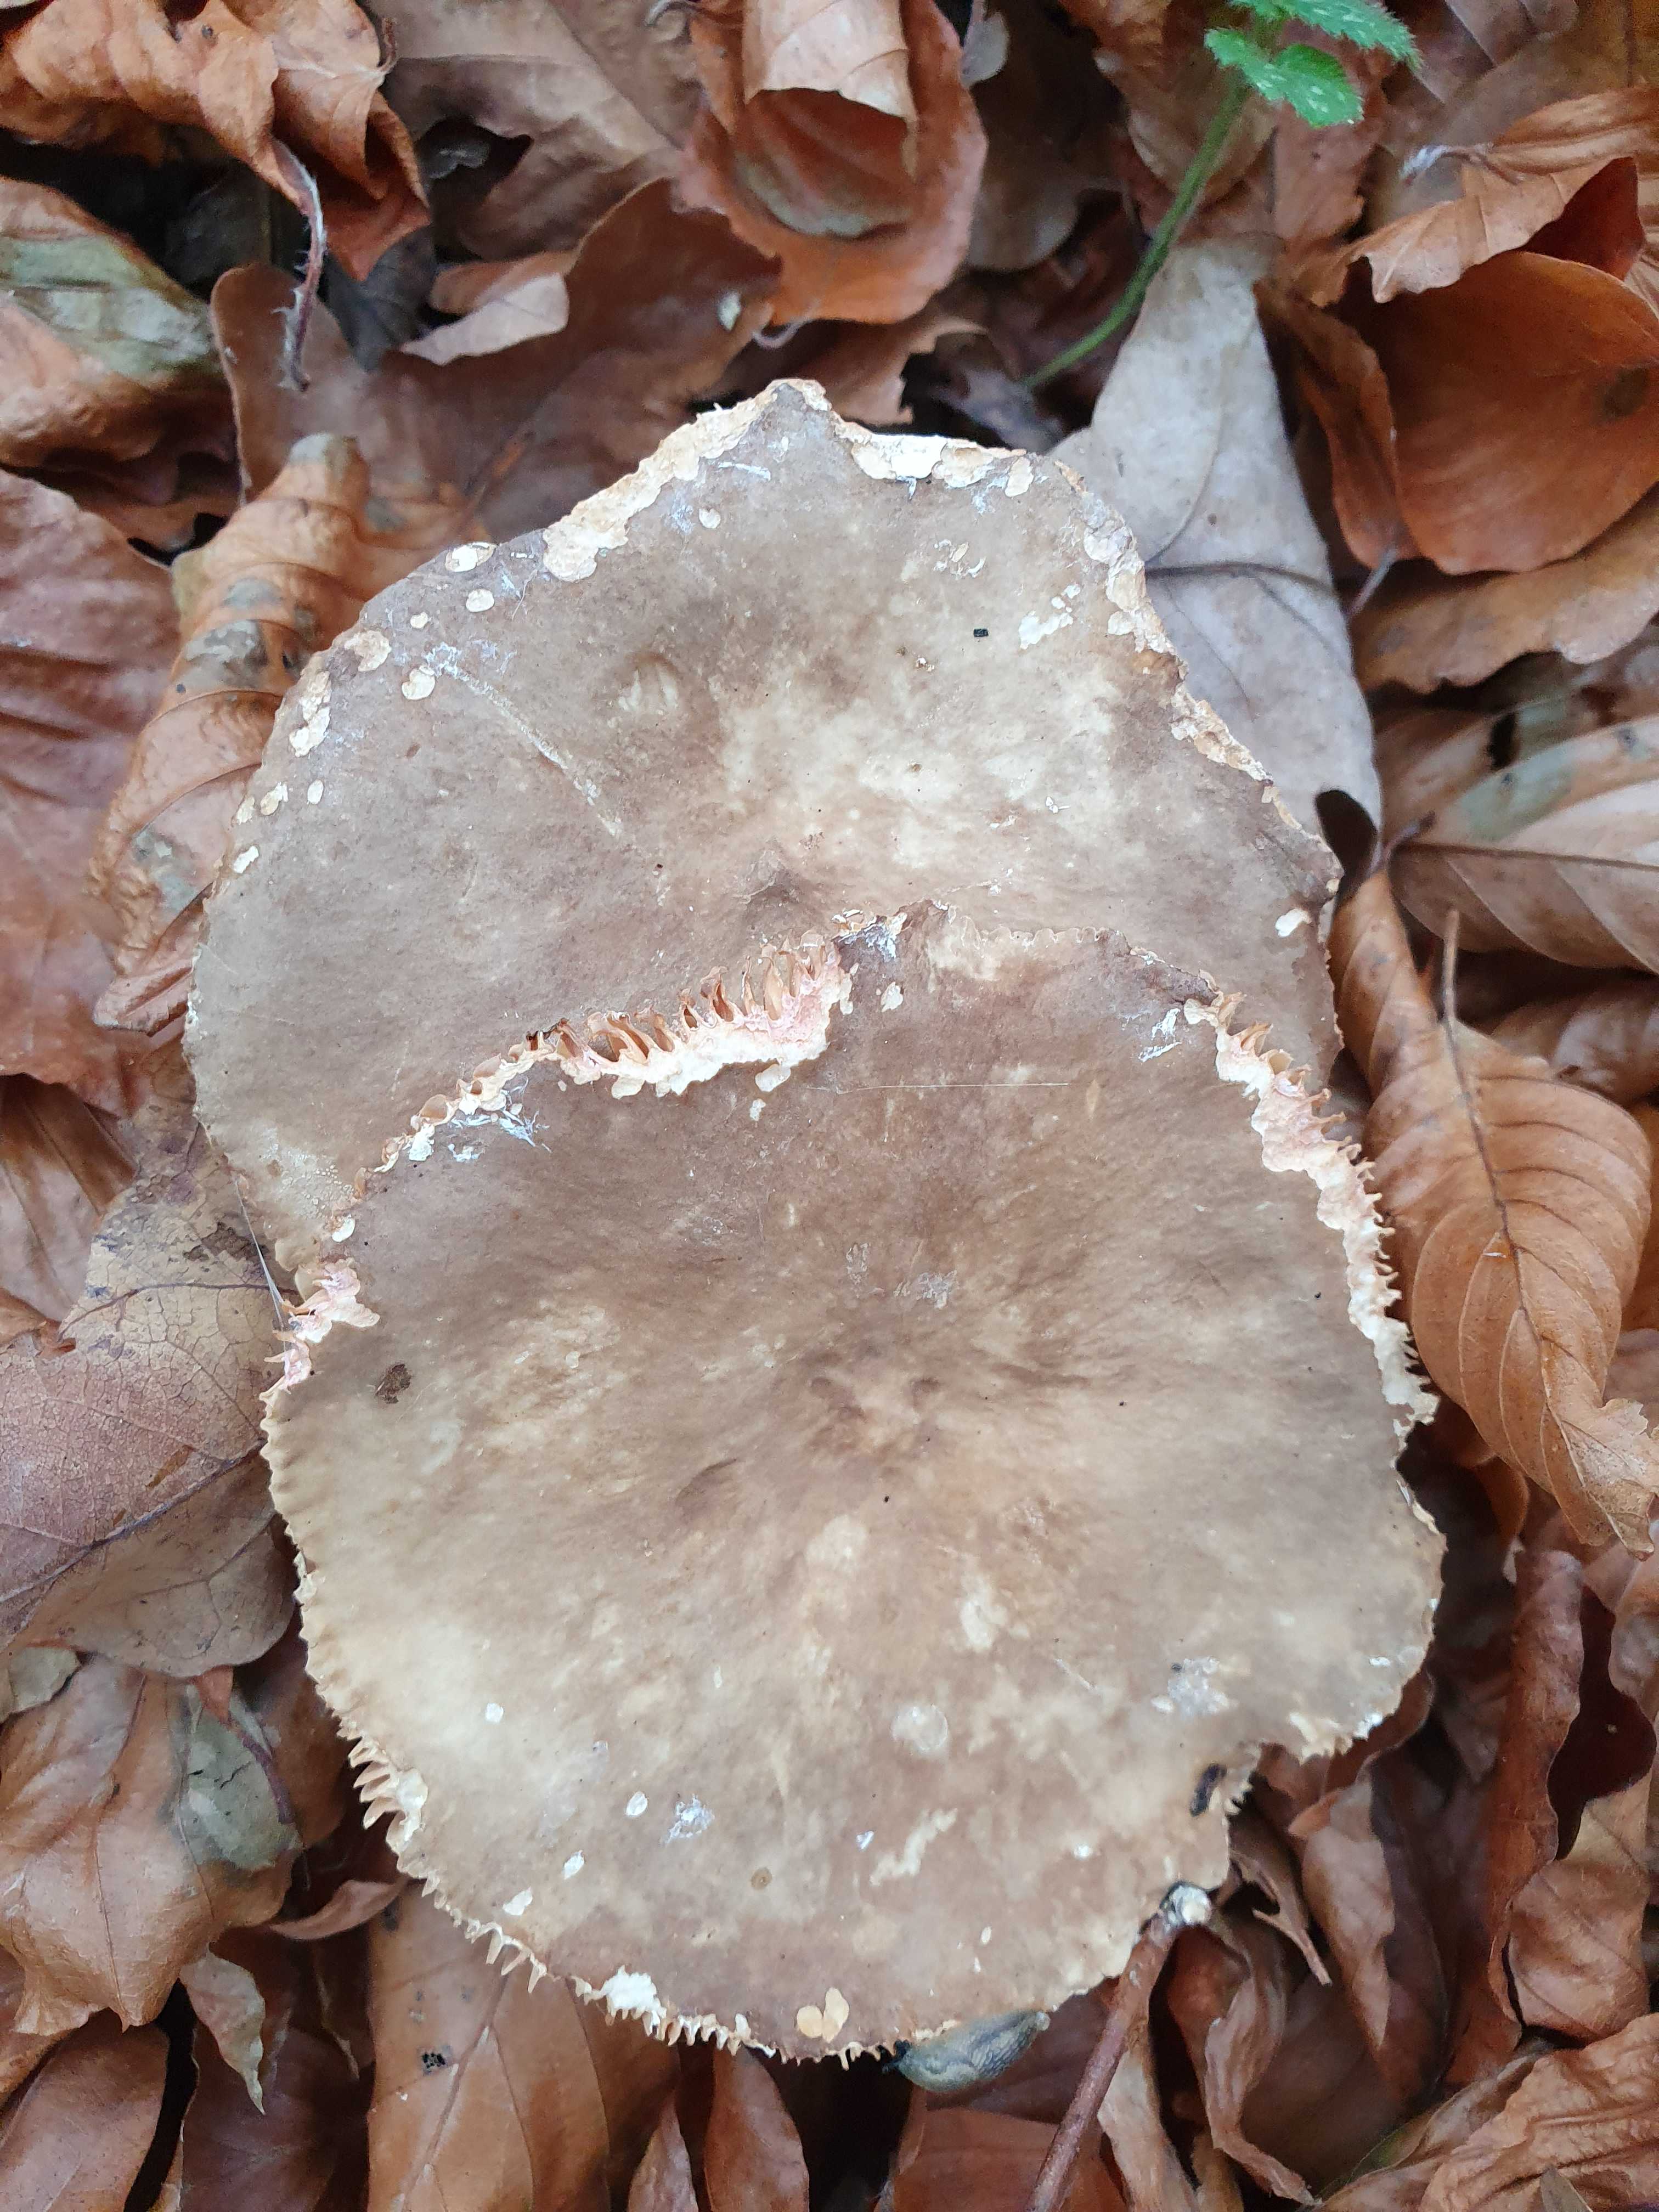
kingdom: Fungi
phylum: Basidiomycota
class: Agaricomycetes
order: Russulales
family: Russulaceae
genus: Lactarius
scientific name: Lactarius
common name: mælkehat
